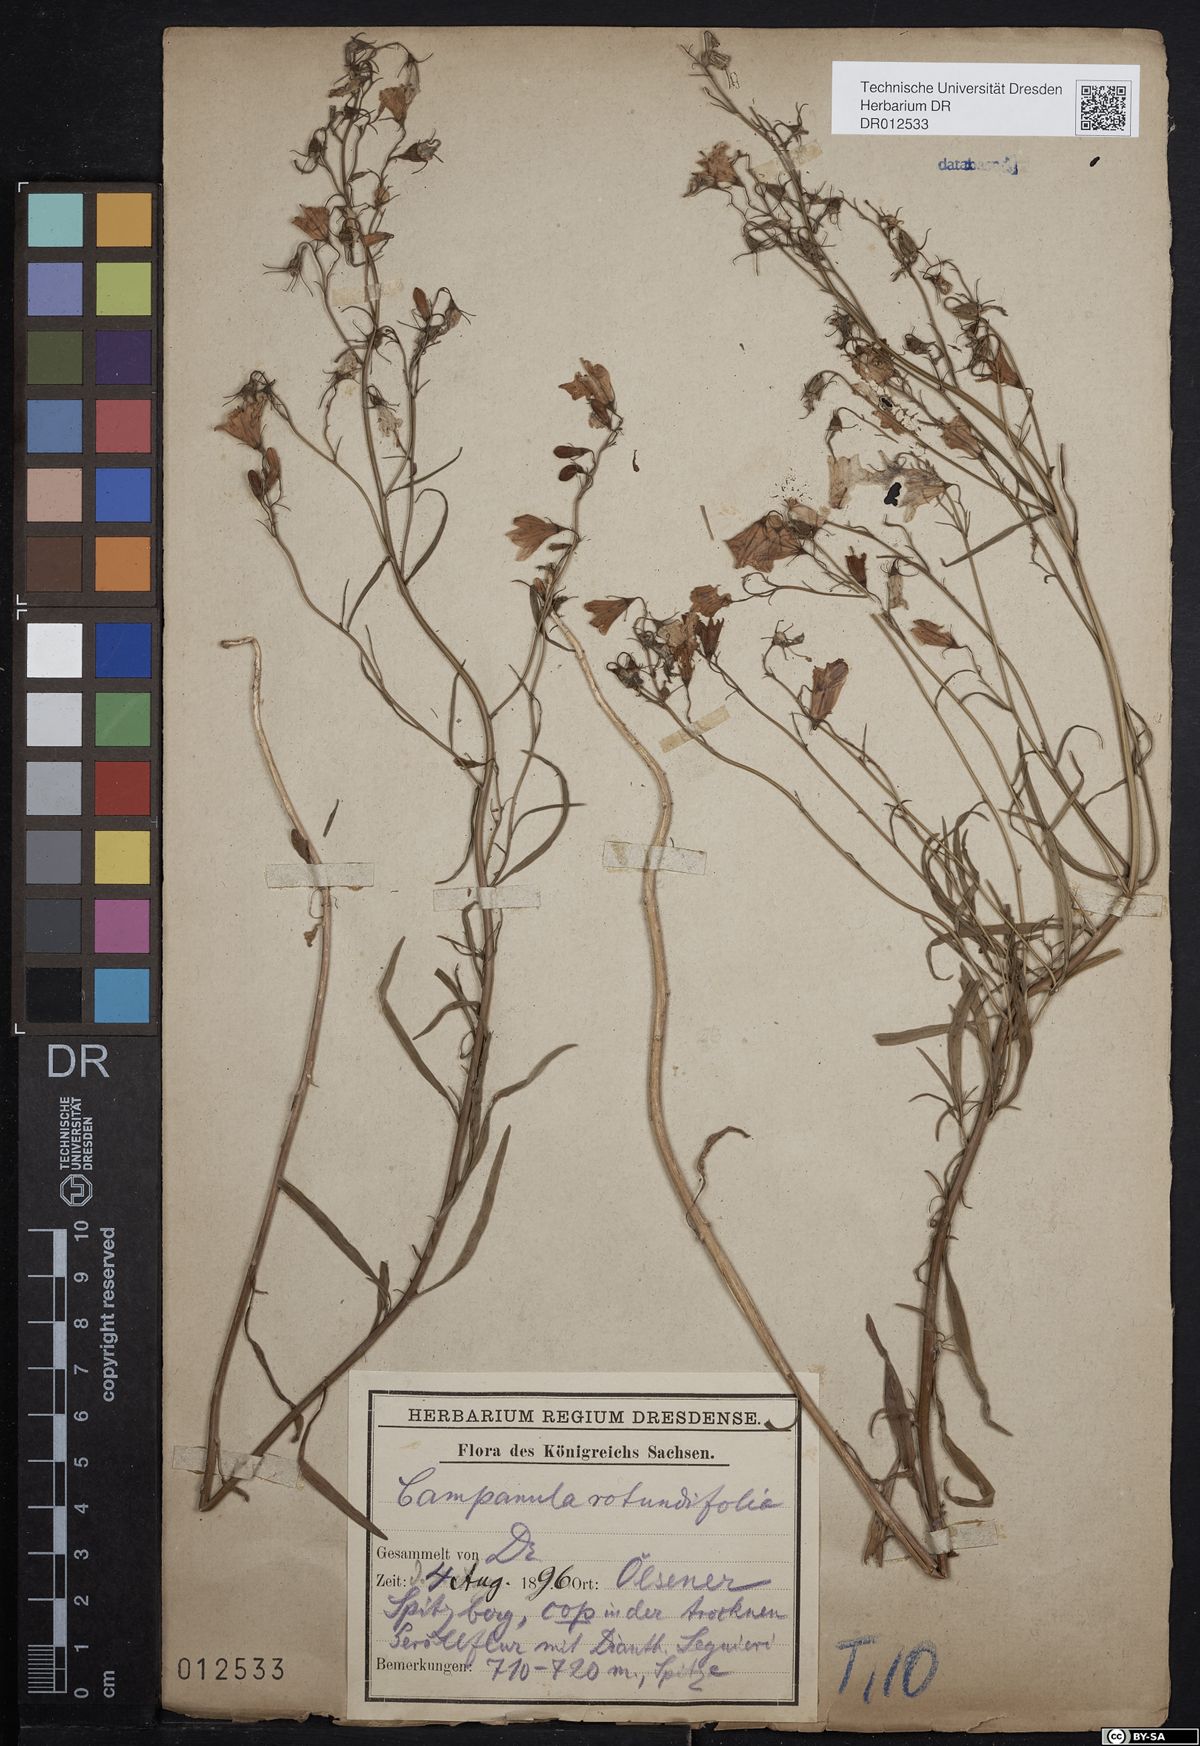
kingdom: Plantae
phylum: Tracheophyta
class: Magnoliopsida
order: Asterales
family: Campanulaceae
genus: Campanula
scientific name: Campanula rotundifolia
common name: Harebell
